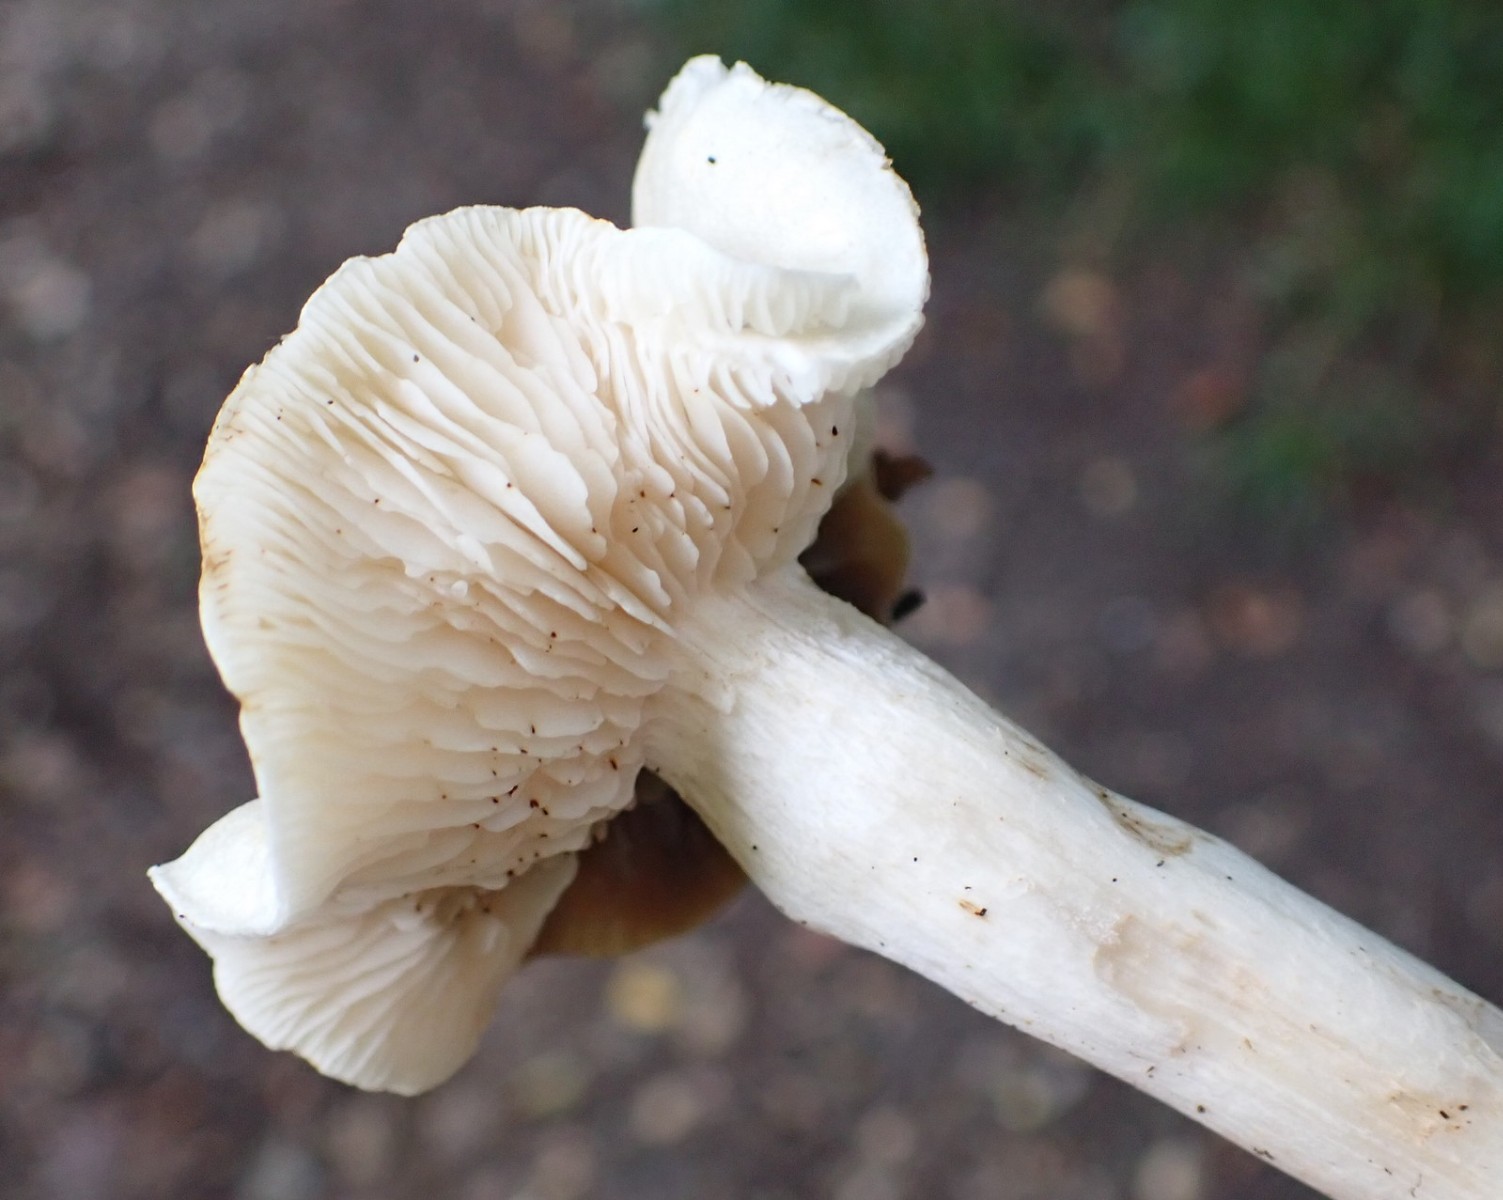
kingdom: Fungi
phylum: Basidiomycota
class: Agaricomycetes
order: Agaricales
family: Tricholomataceae
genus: Tricholoma
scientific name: Tricholoma lascivum
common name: stinkende ridderhat
